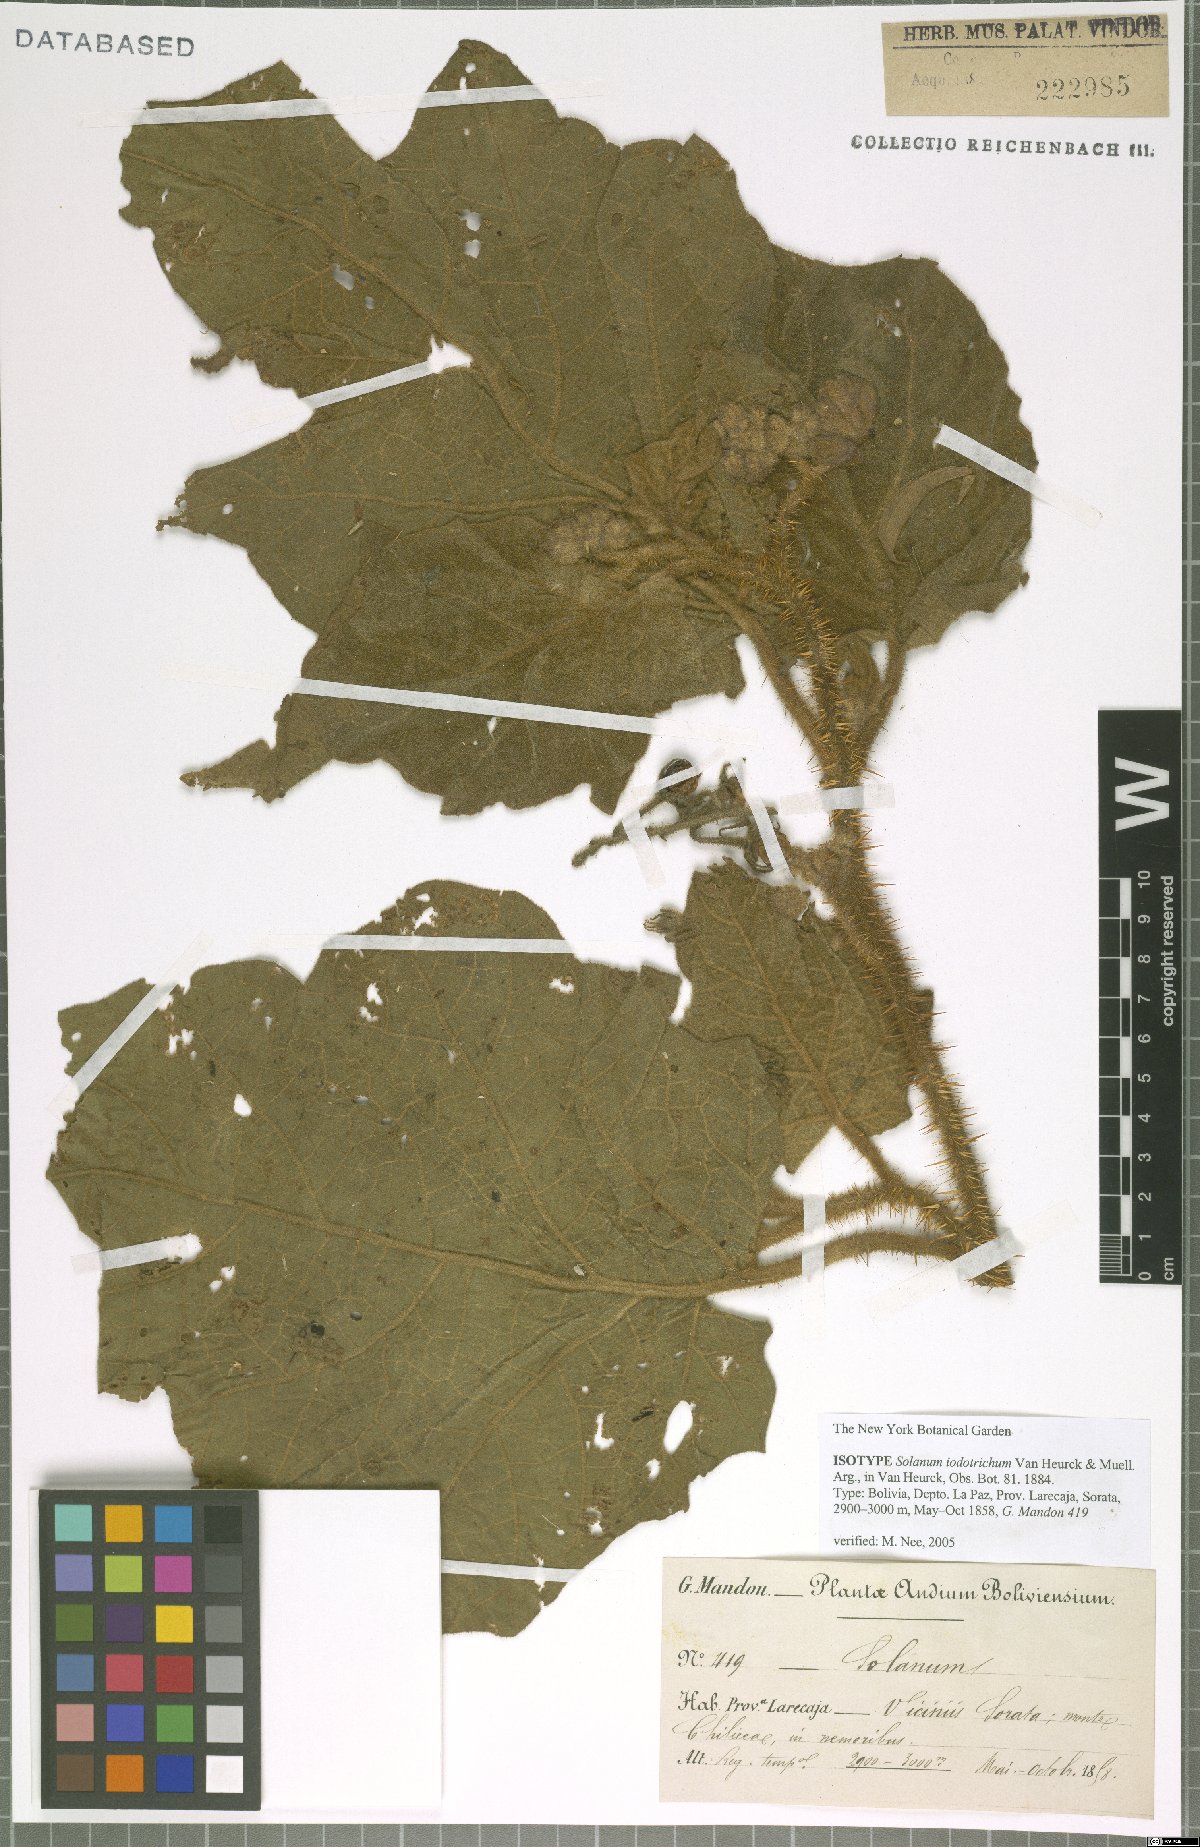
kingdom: Plantae
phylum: Tracheophyta
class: Magnoliopsida
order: Solanales
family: Solanaceae
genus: Solanum
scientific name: Solanum iodotrichum
